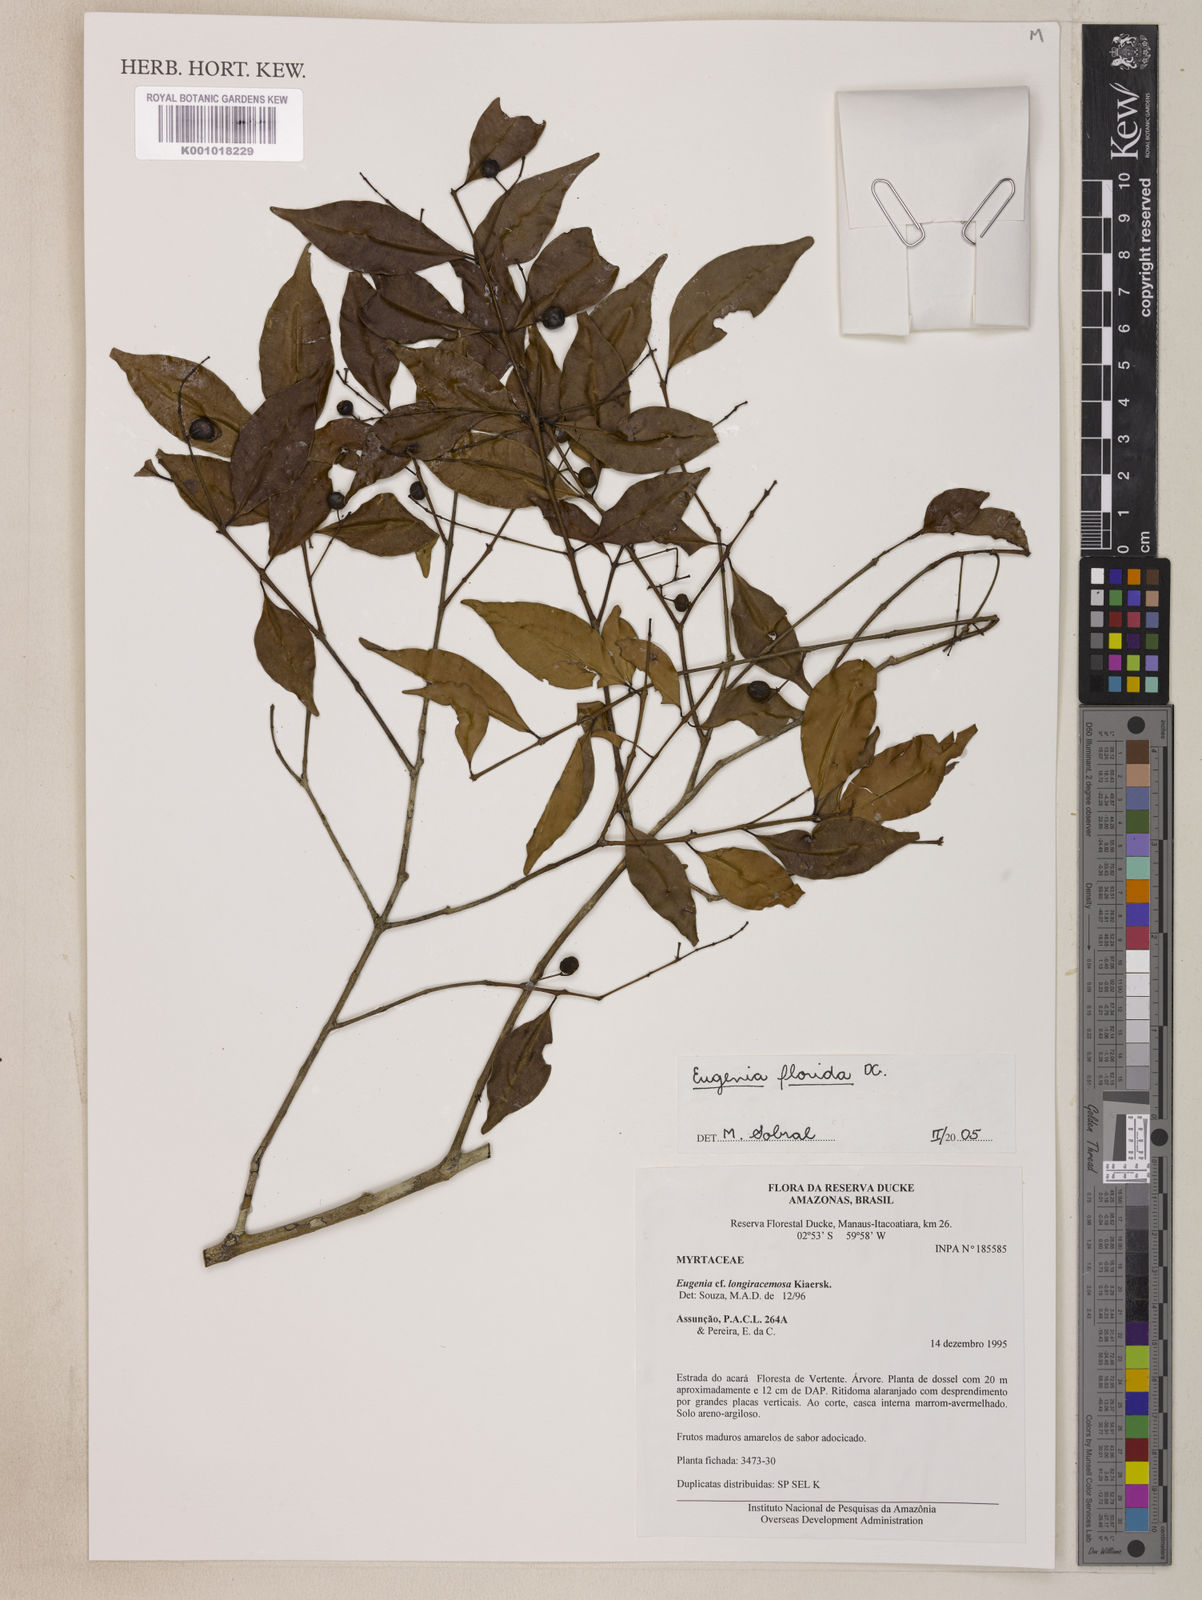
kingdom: Plantae
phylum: Tracheophyta
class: Magnoliopsida
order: Myrtales
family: Myrtaceae
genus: Eugenia
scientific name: Eugenia florida
